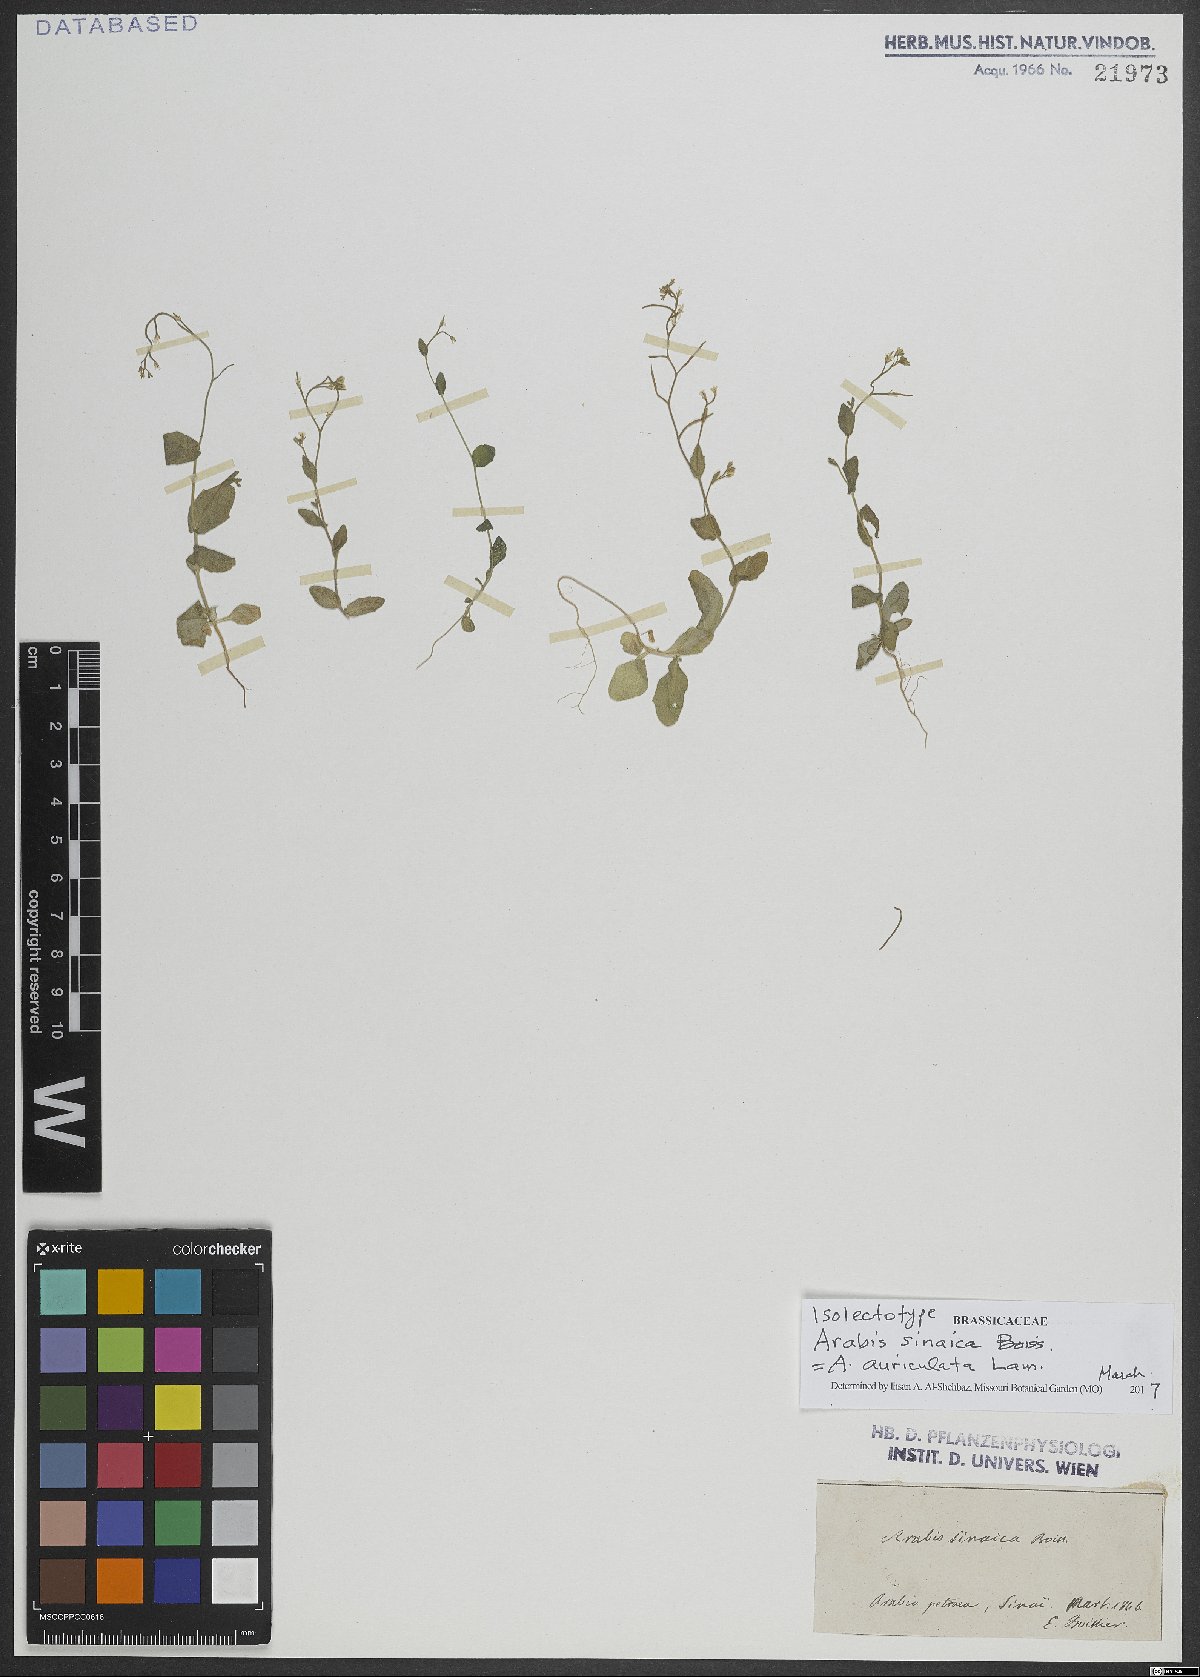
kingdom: Plantae
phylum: Tracheophyta
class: Magnoliopsida
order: Brassicales
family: Brassicaceae
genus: Arabis
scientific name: Arabis auriculata
